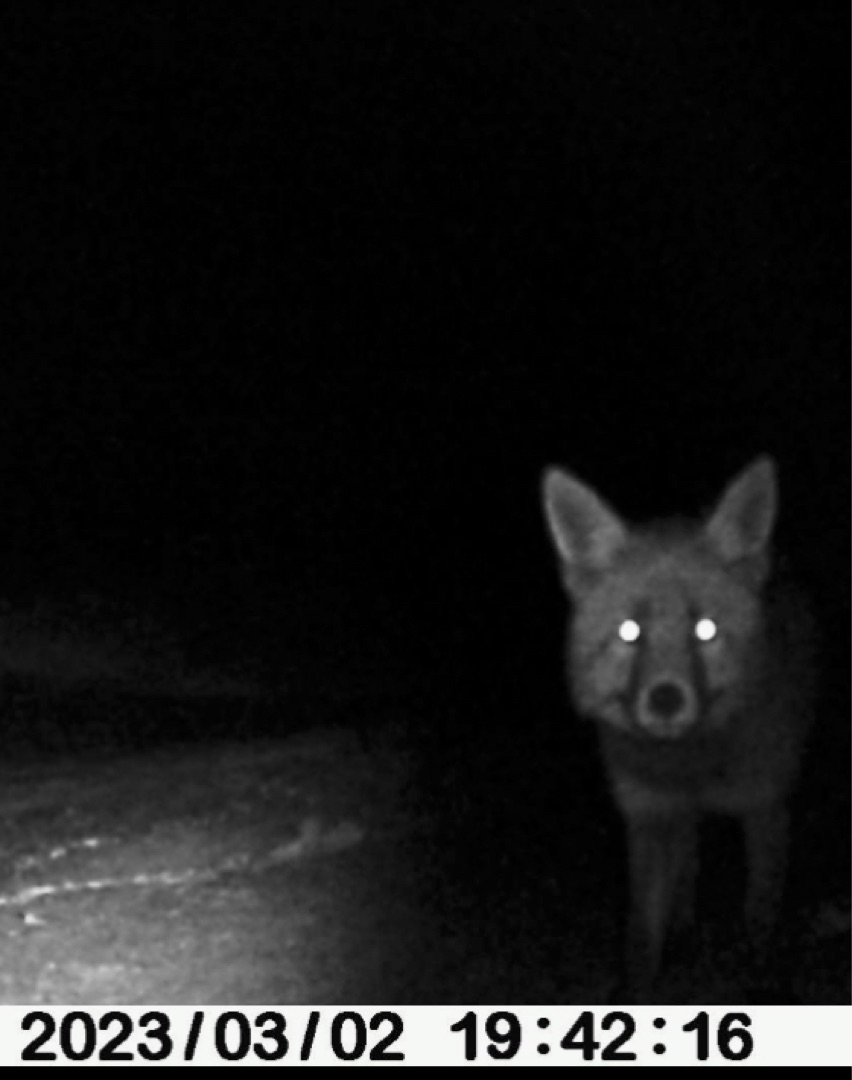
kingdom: Animalia
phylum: Chordata
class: Mammalia
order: Carnivora
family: Canidae
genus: Vulpes
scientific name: Vulpes vulpes
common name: Ræv
